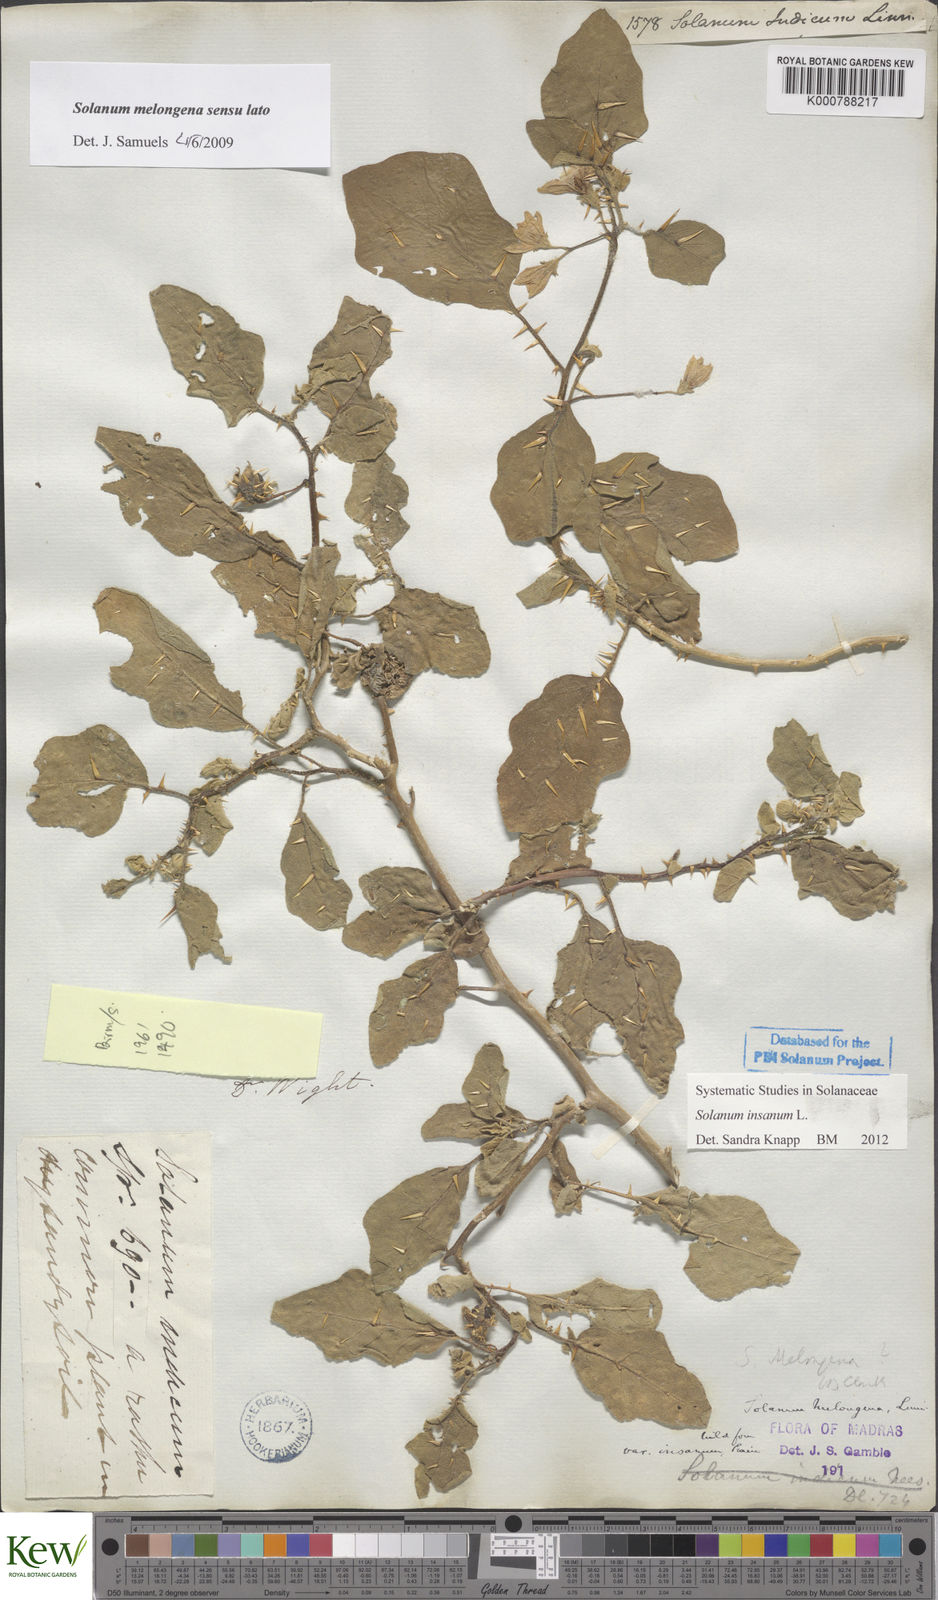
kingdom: Plantae
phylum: Tracheophyta
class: Magnoliopsida
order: Solanales
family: Solanaceae
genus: Solanum
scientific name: Solanum insanum
